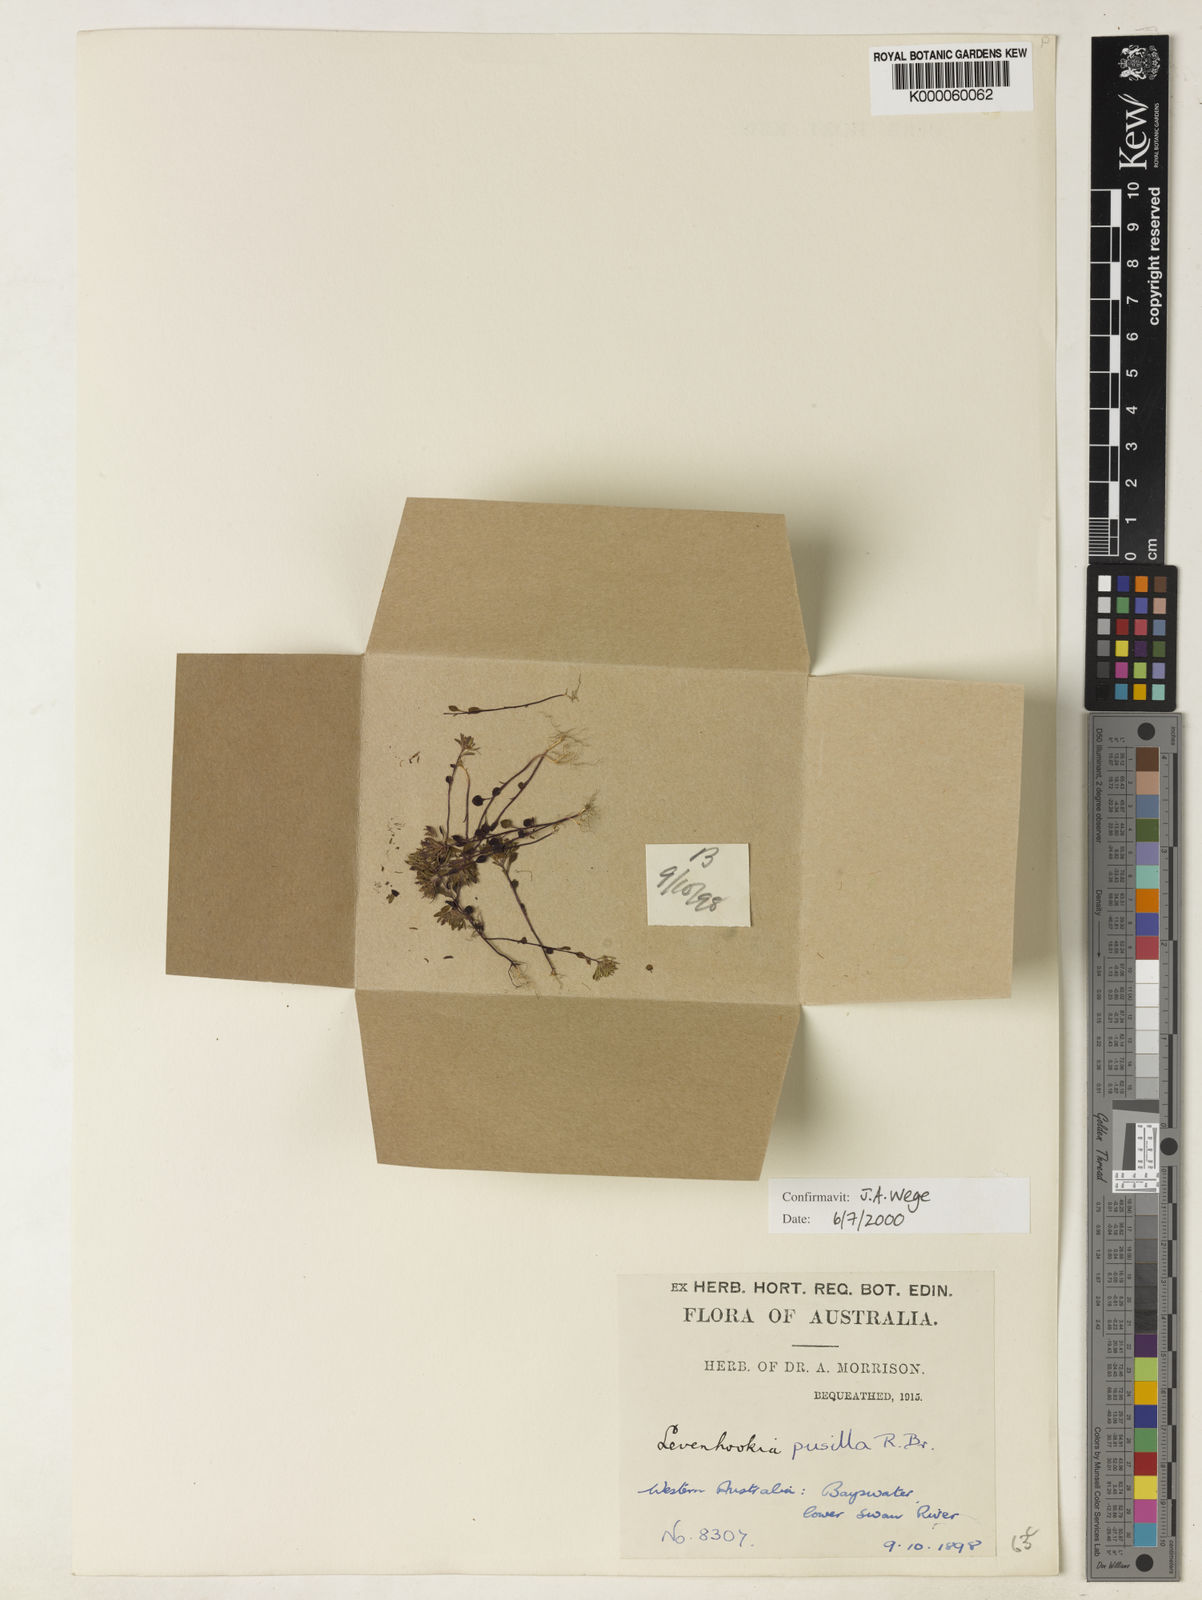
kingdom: Plantae
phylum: Tracheophyta
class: Magnoliopsida
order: Asterales
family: Stylidiaceae
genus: Levenhookia
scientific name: Levenhookia pusilla
